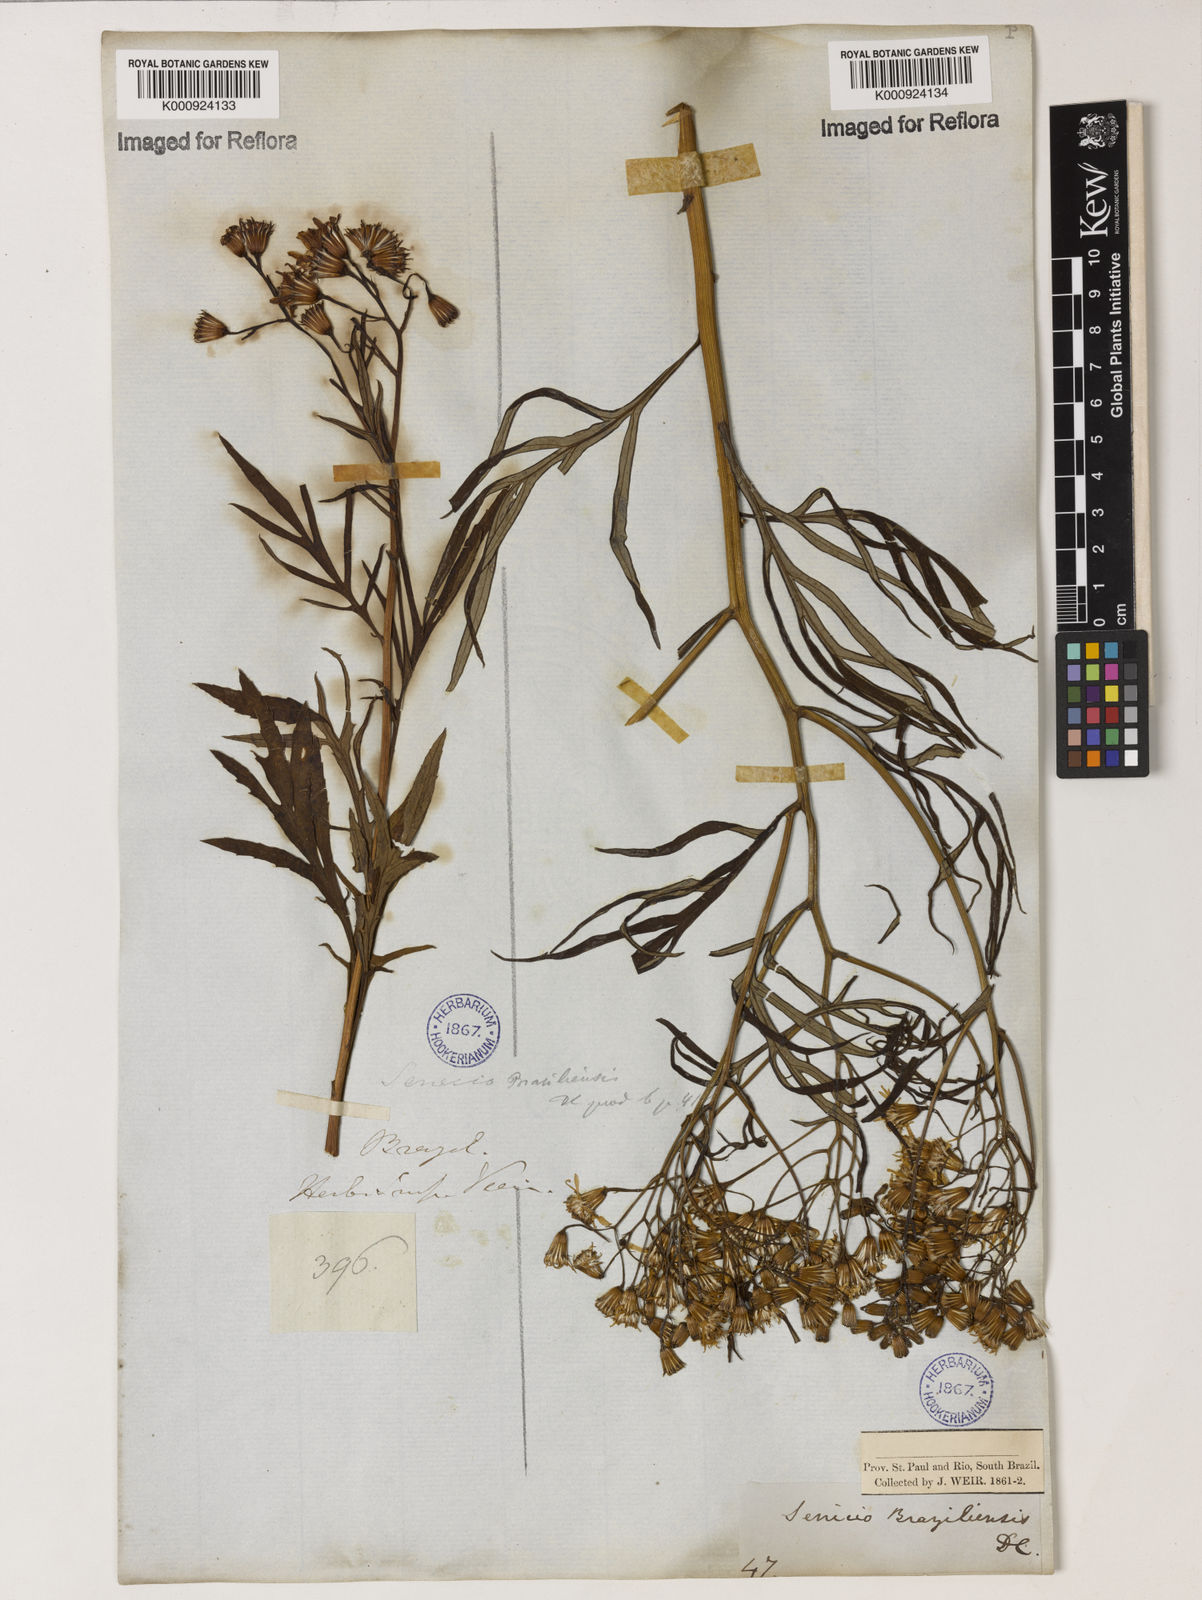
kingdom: Plantae
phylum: Tracheophyta
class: Magnoliopsida
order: Asterales
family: Asteraceae
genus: Senecio
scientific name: Senecio brasiliensis
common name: Hemp-leaf ragwort
